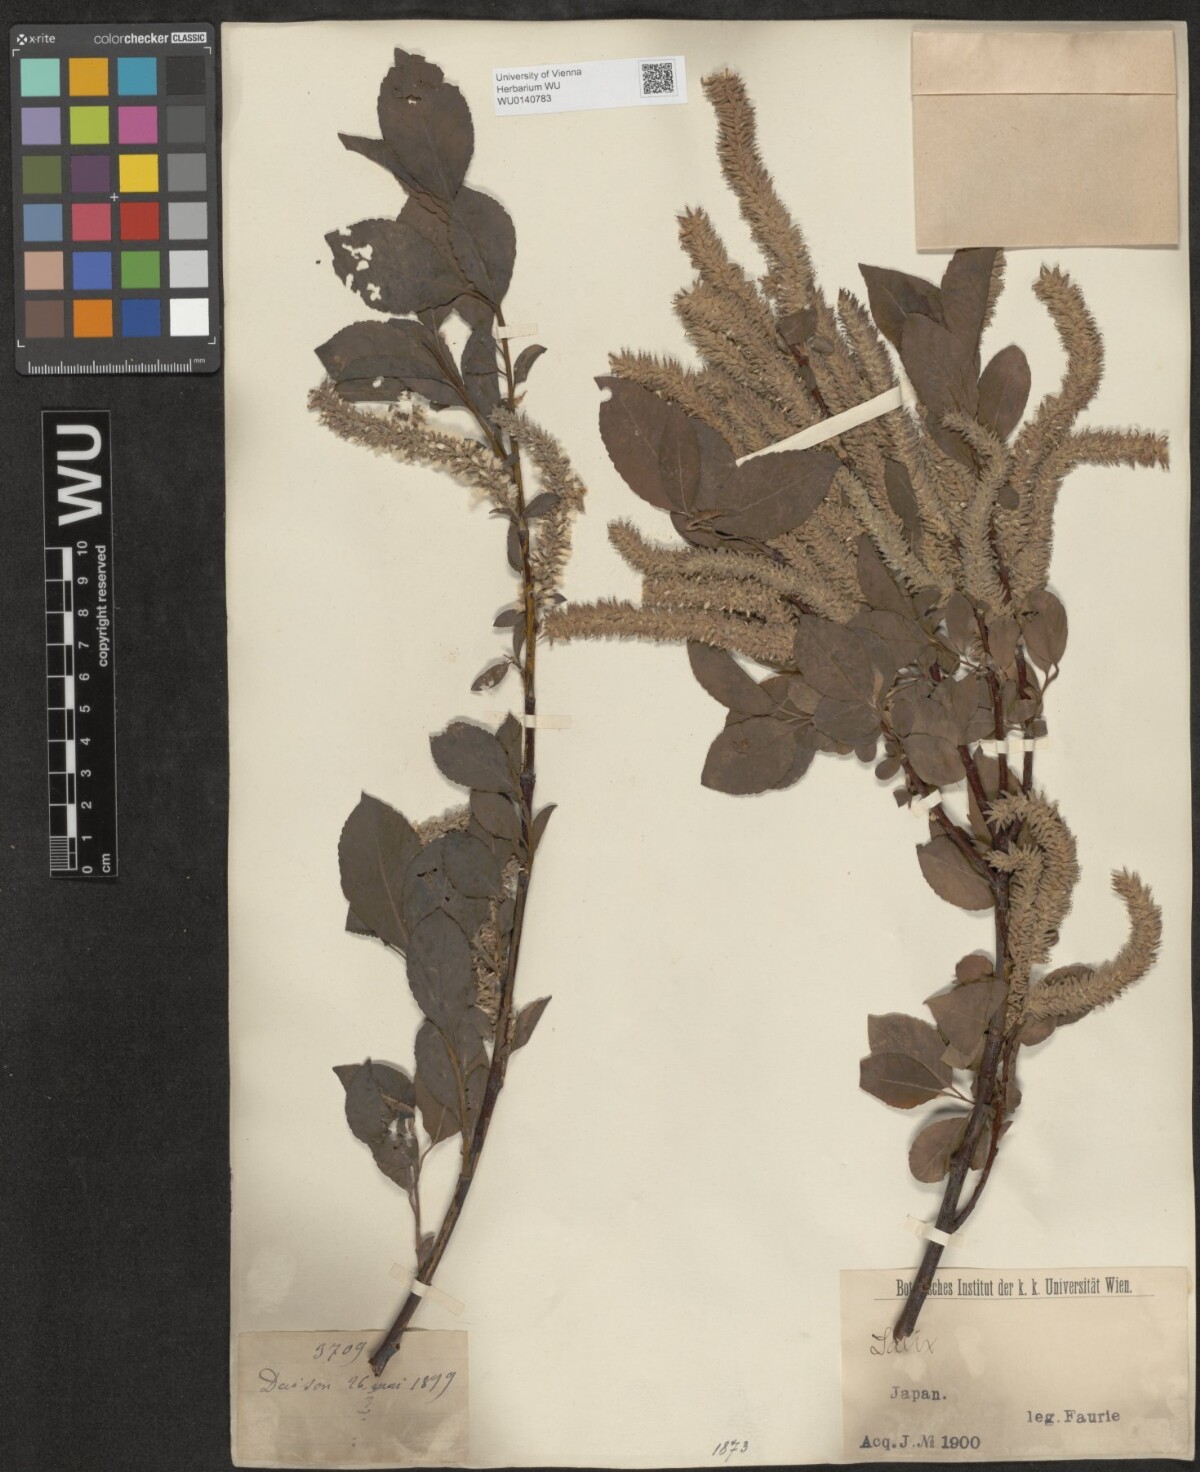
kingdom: Plantae
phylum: Tracheophyta
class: Magnoliopsida
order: Malpighiales
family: Salicaceae
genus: Salix
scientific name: Salix
